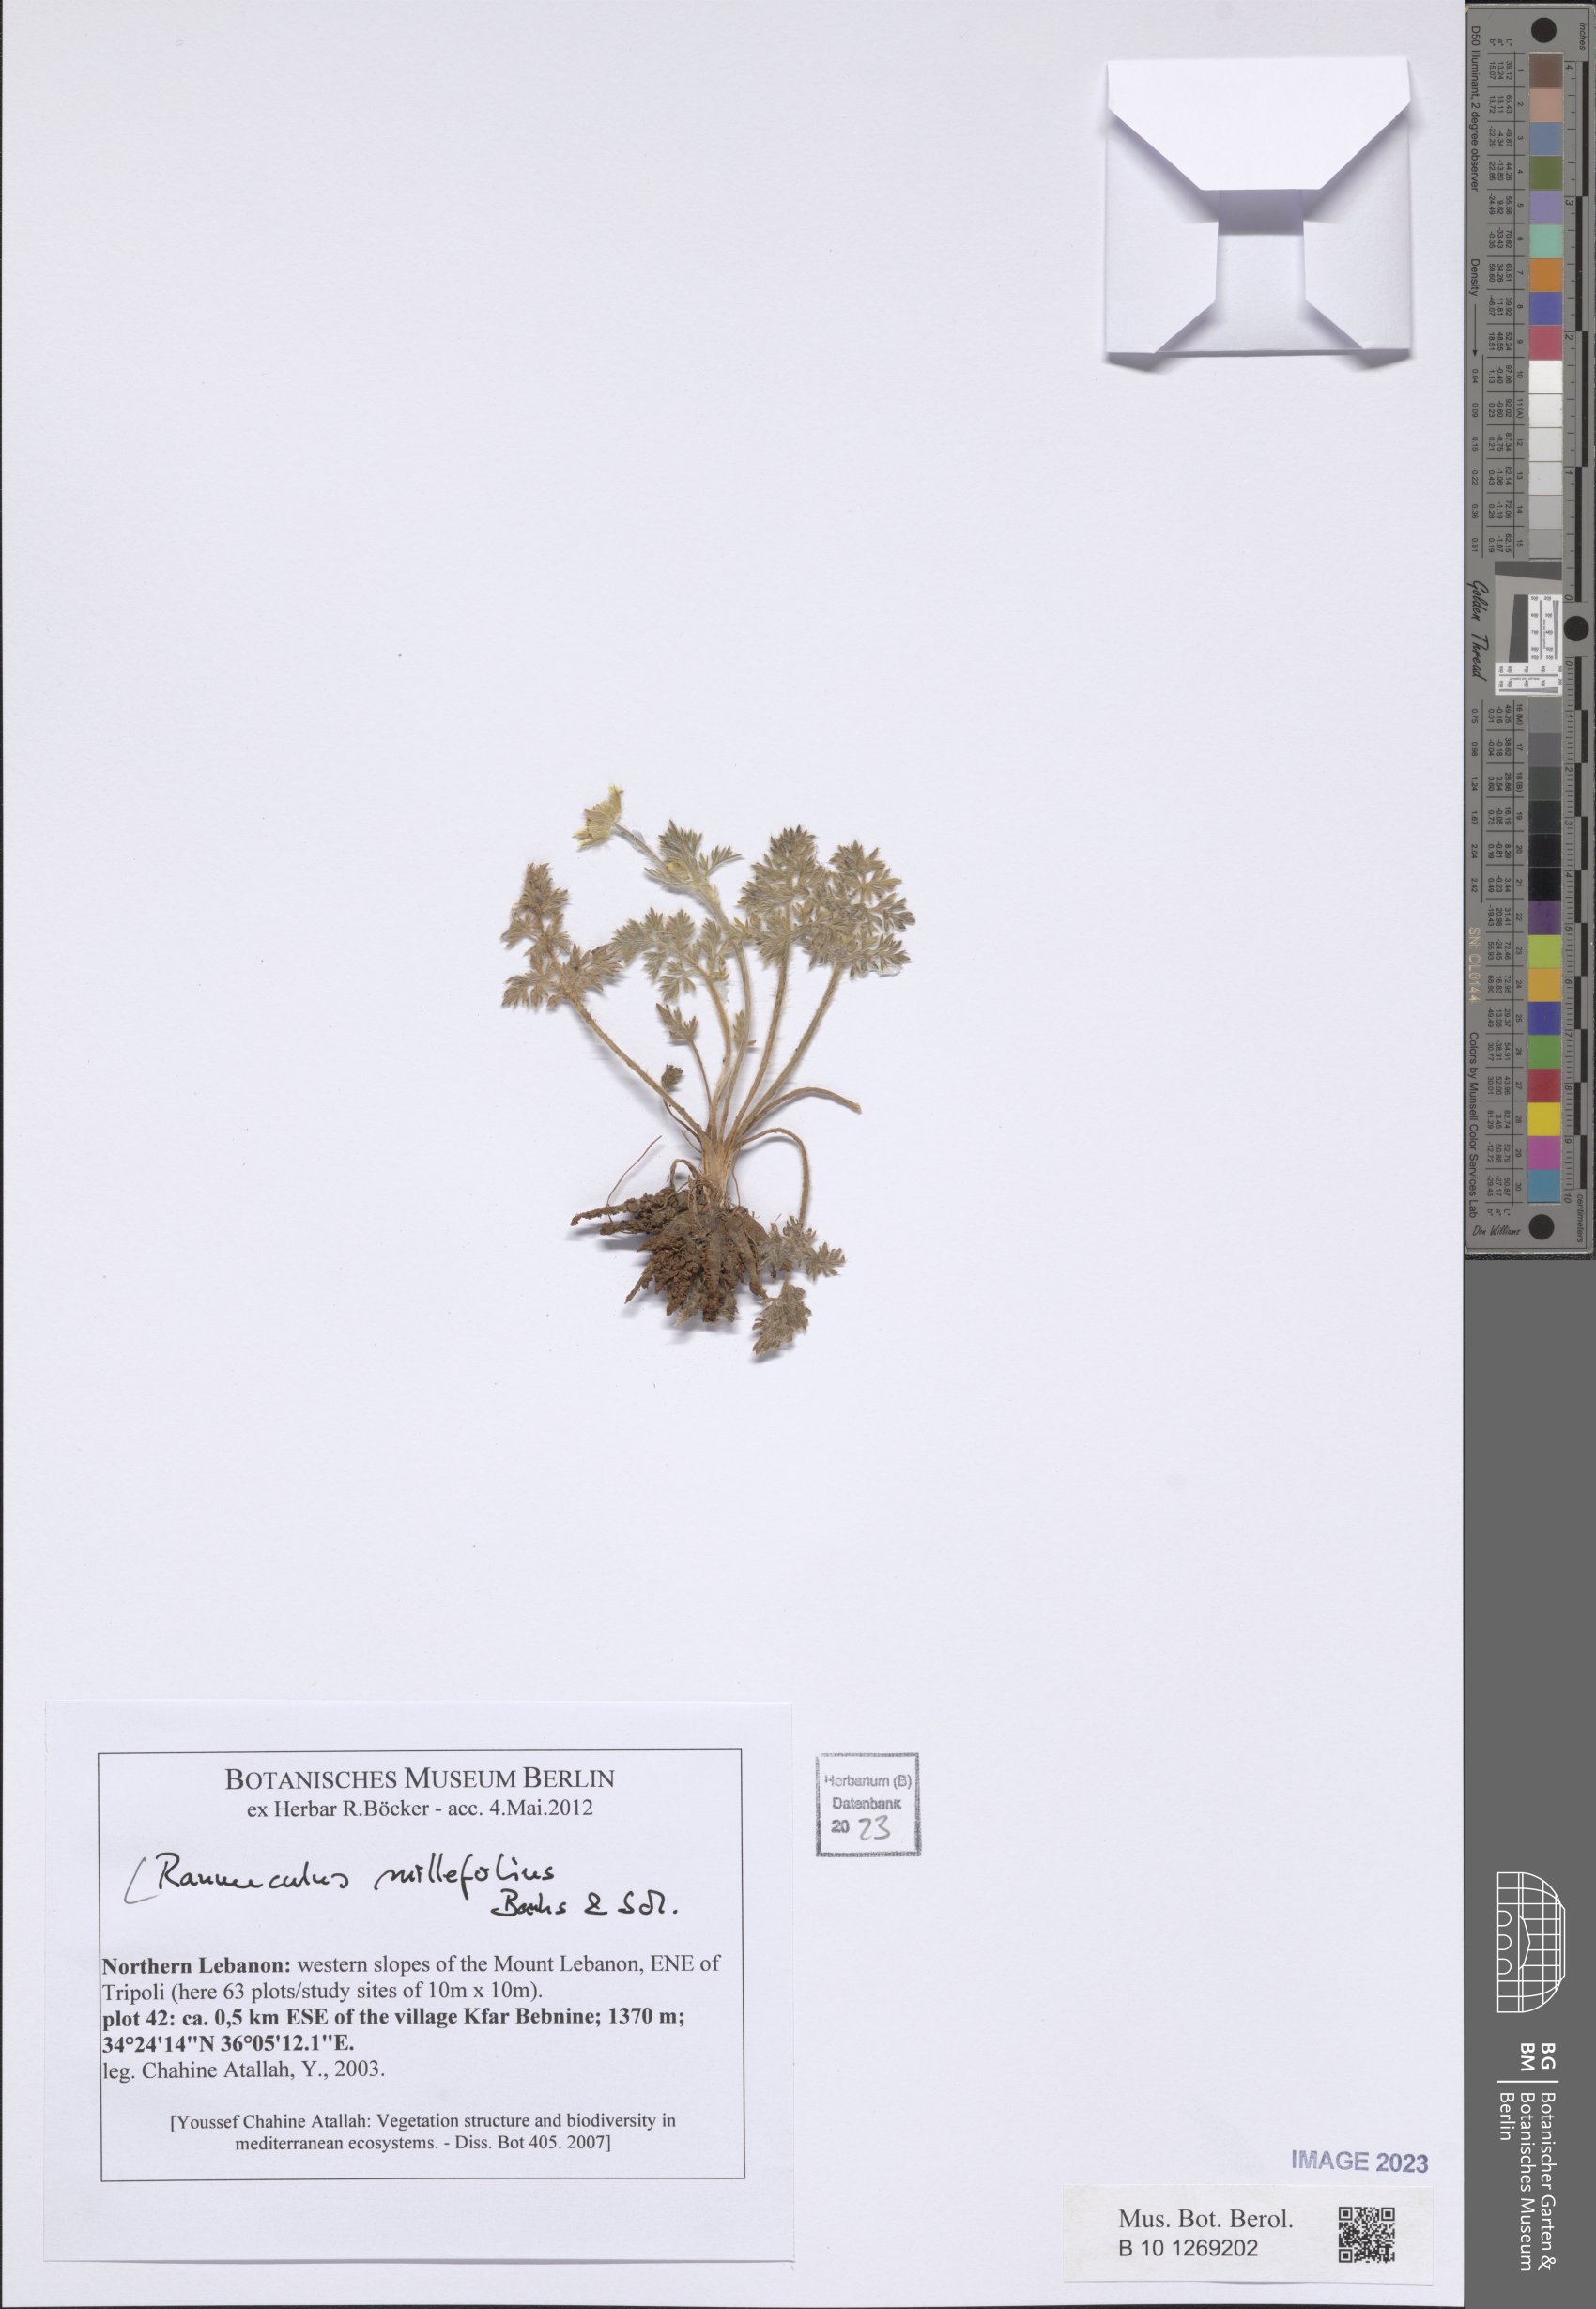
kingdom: Plantae
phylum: Tracheophyta
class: Magnoliopsida
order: Ranunculales
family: Ranunculaceae
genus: Ranunculus
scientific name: Ranunculus millefolius
